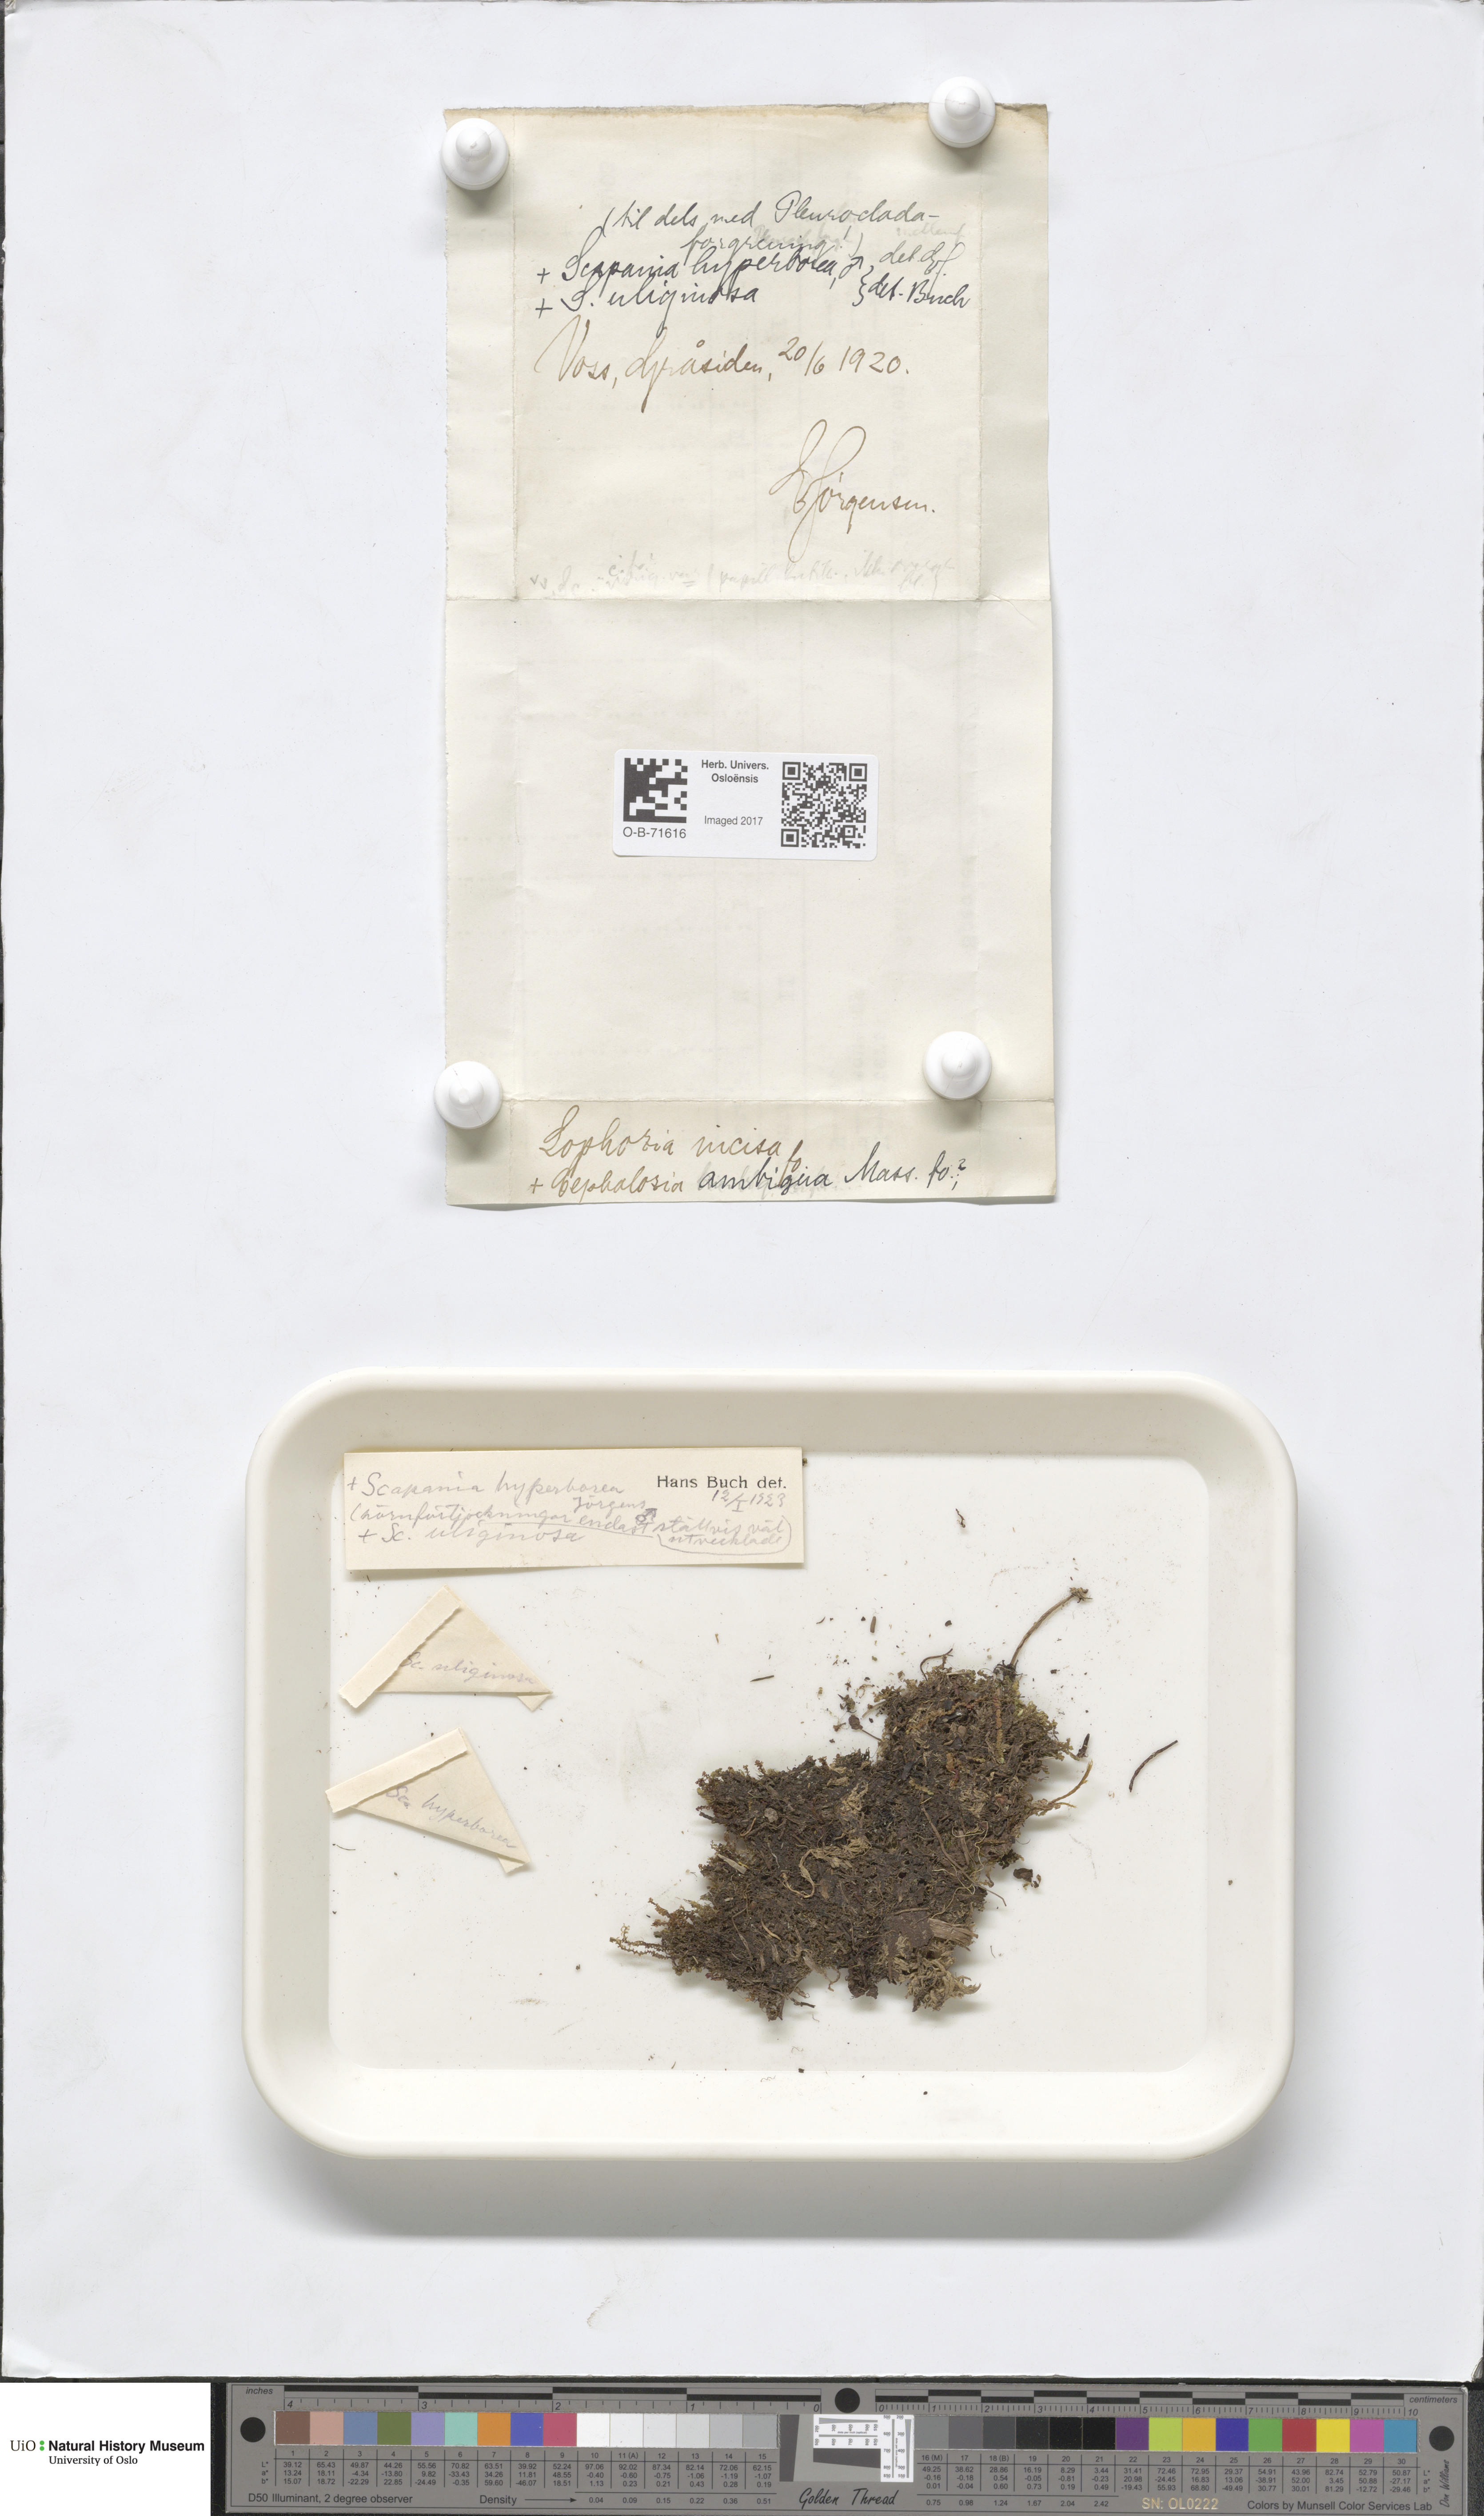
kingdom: Plantae
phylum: Marchantiophyta
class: Jungermanniopsida
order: Jungermanniales
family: Cephaloziaceae
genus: Cephalozia
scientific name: Cephalozia bicuspidata
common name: Two-horned pincerwort
